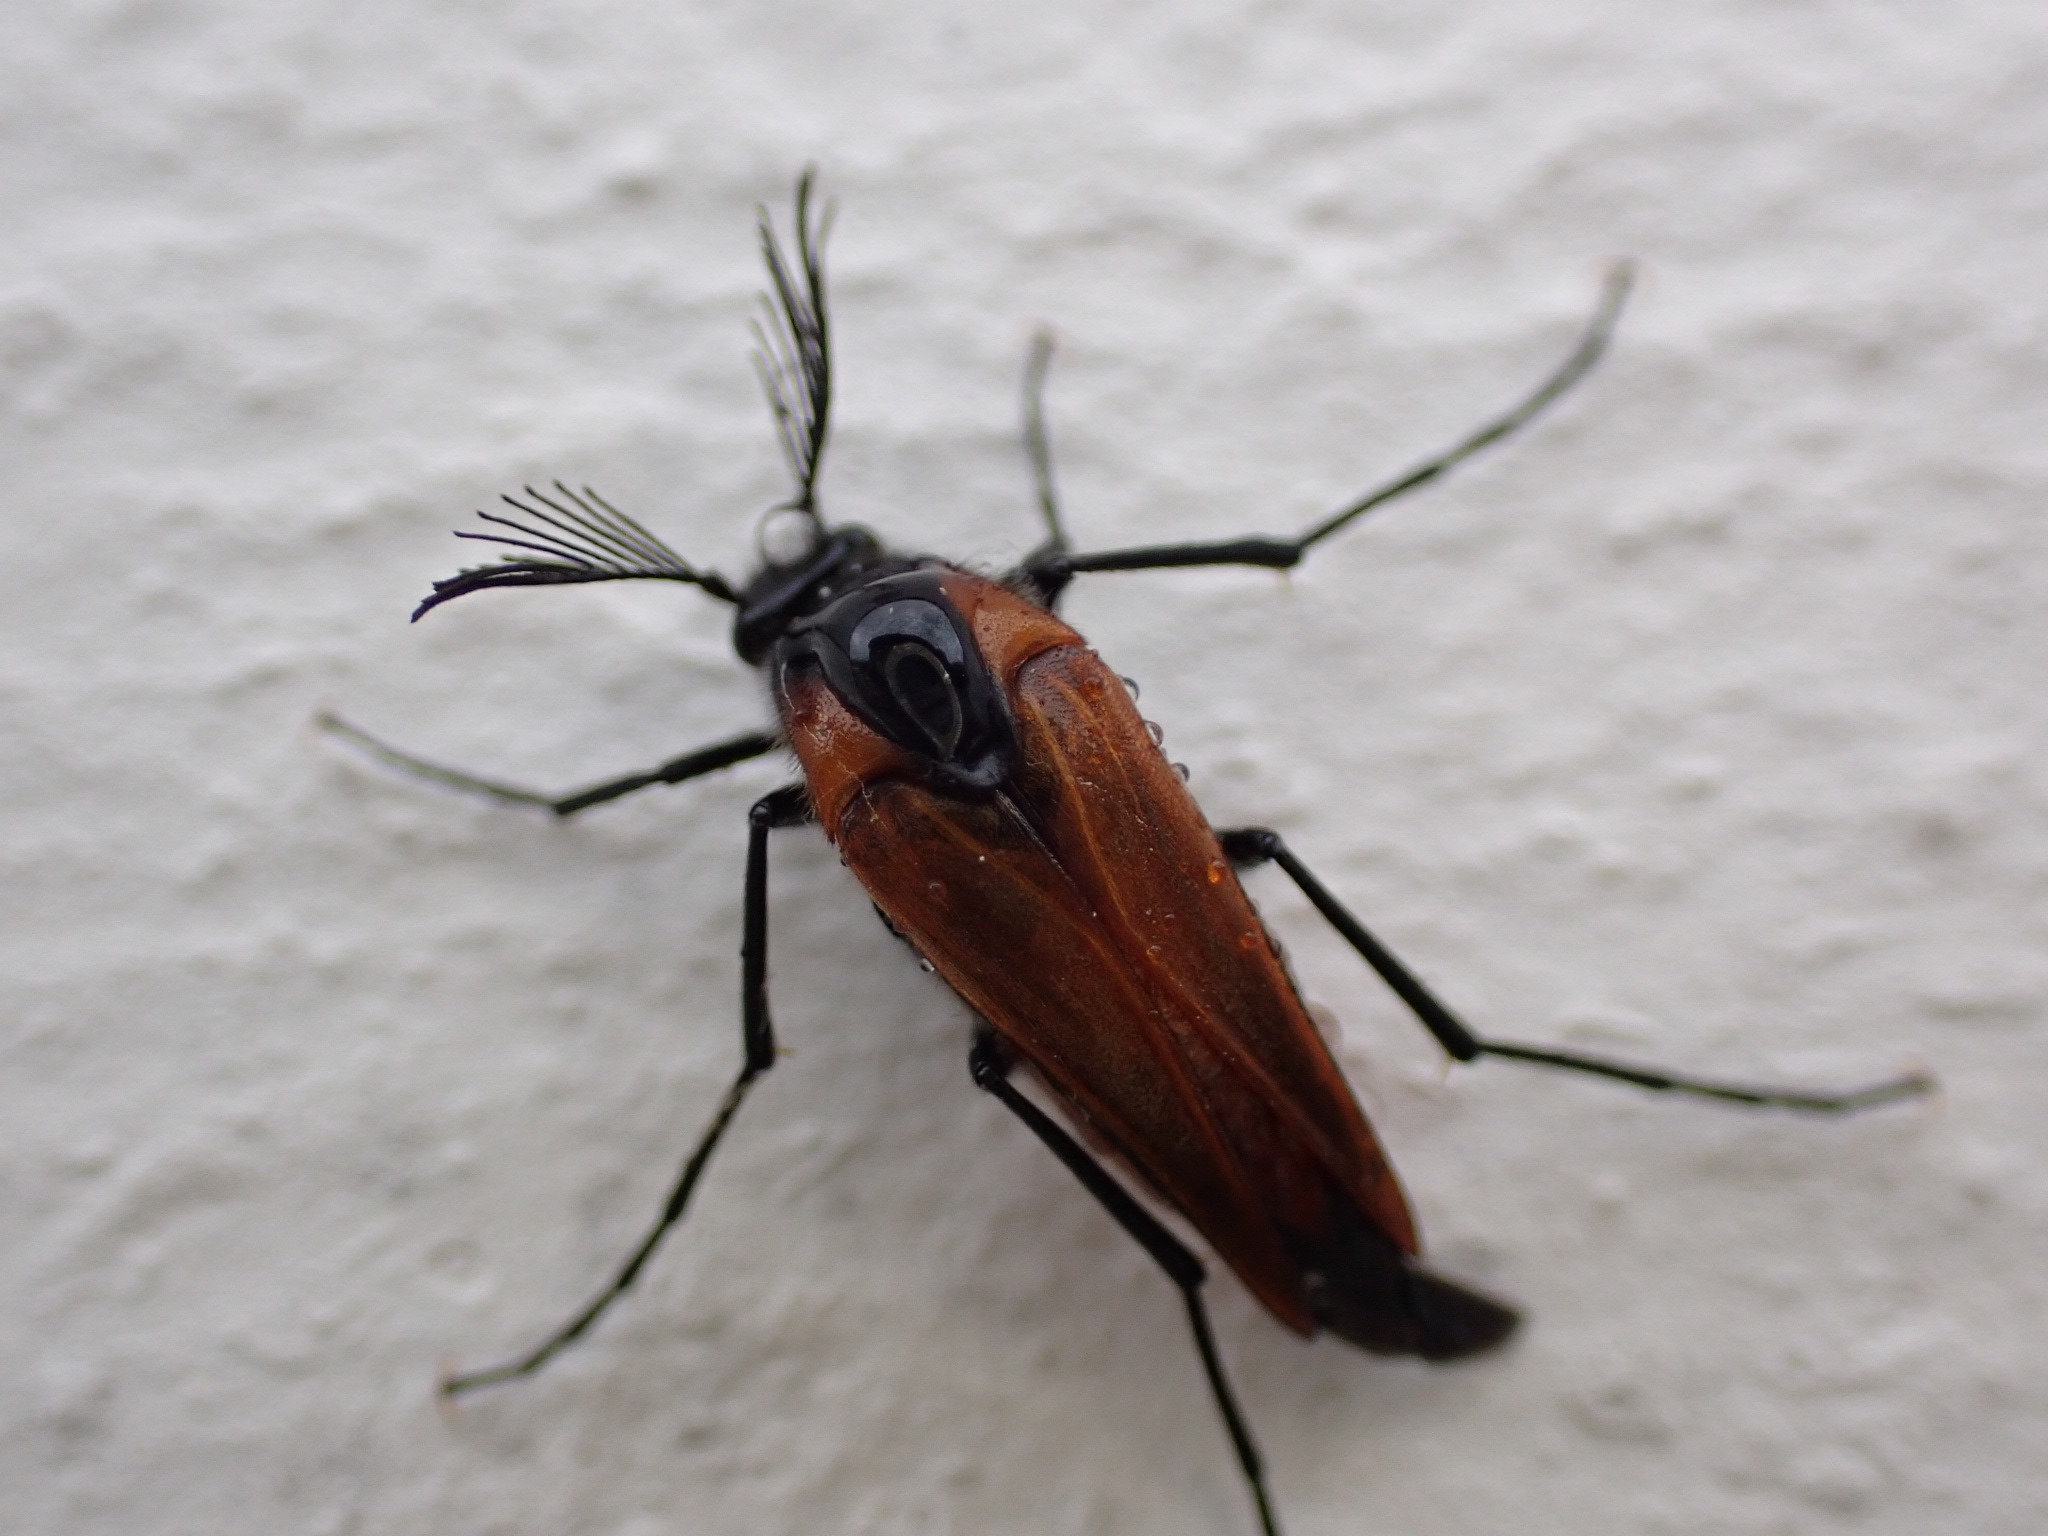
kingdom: Animalia
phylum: Arthropoda
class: Insecta
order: Coleoptera
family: Ripiphoridae
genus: Metoecus
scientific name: Metoecus paradoxus
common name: Hvepsesnyltebille
